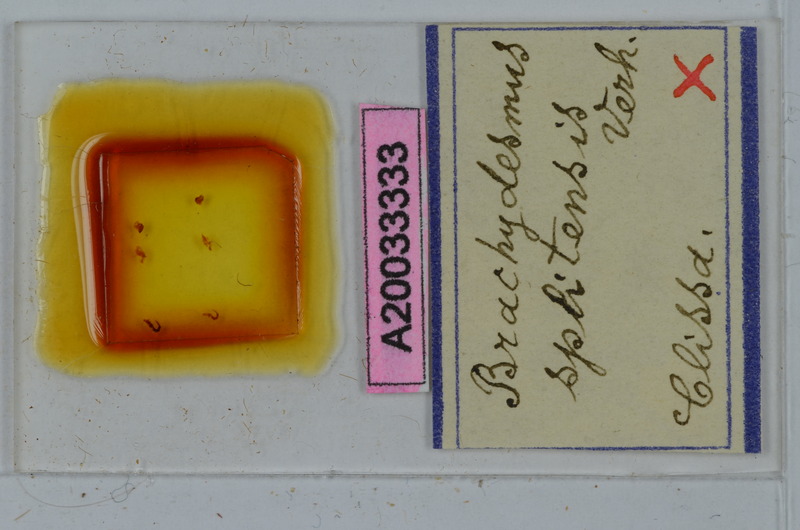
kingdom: Animalia
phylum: Arthropoda
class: Diplopoda
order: Polydesmida
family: Polydesmidae
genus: Brachydesmus
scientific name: Brachydesmus splitensis
